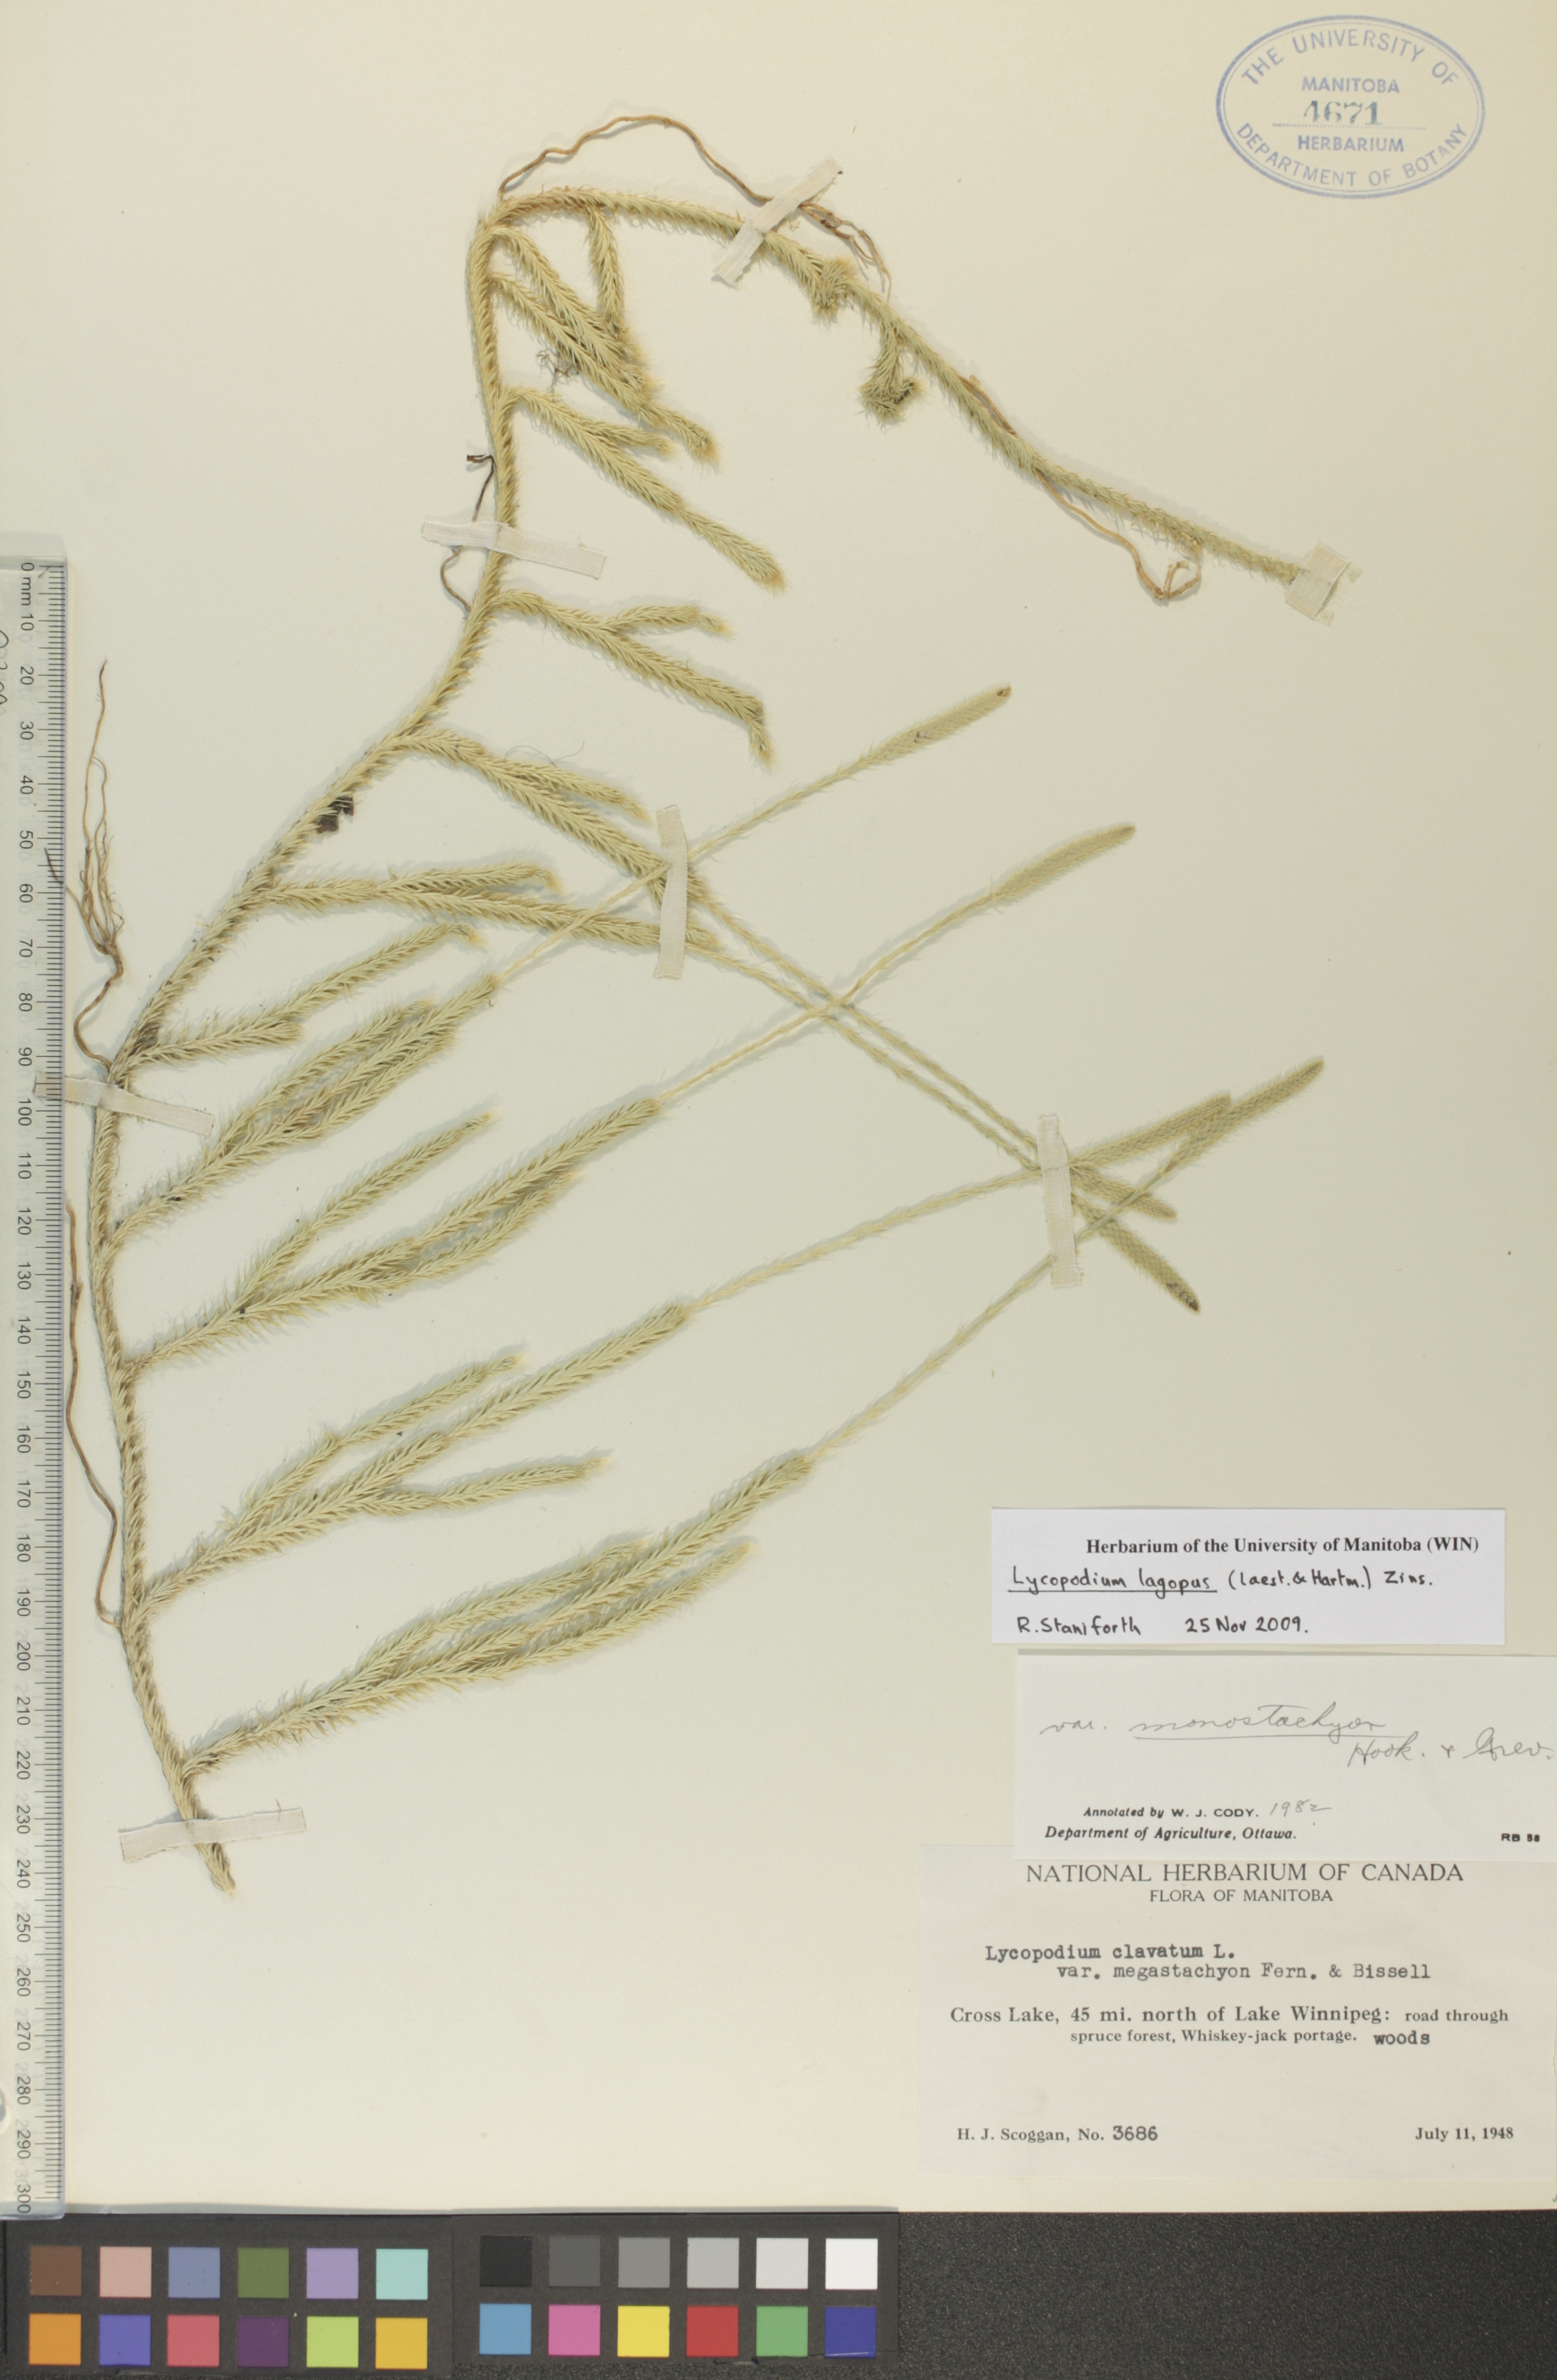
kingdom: Plantae
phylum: Tracheophyta
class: Lycopodiopsida
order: Lycopodiales
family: Lycopodiaceae
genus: Lycopodium
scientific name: Lycopodium lagopus
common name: One-cone clubmoss
